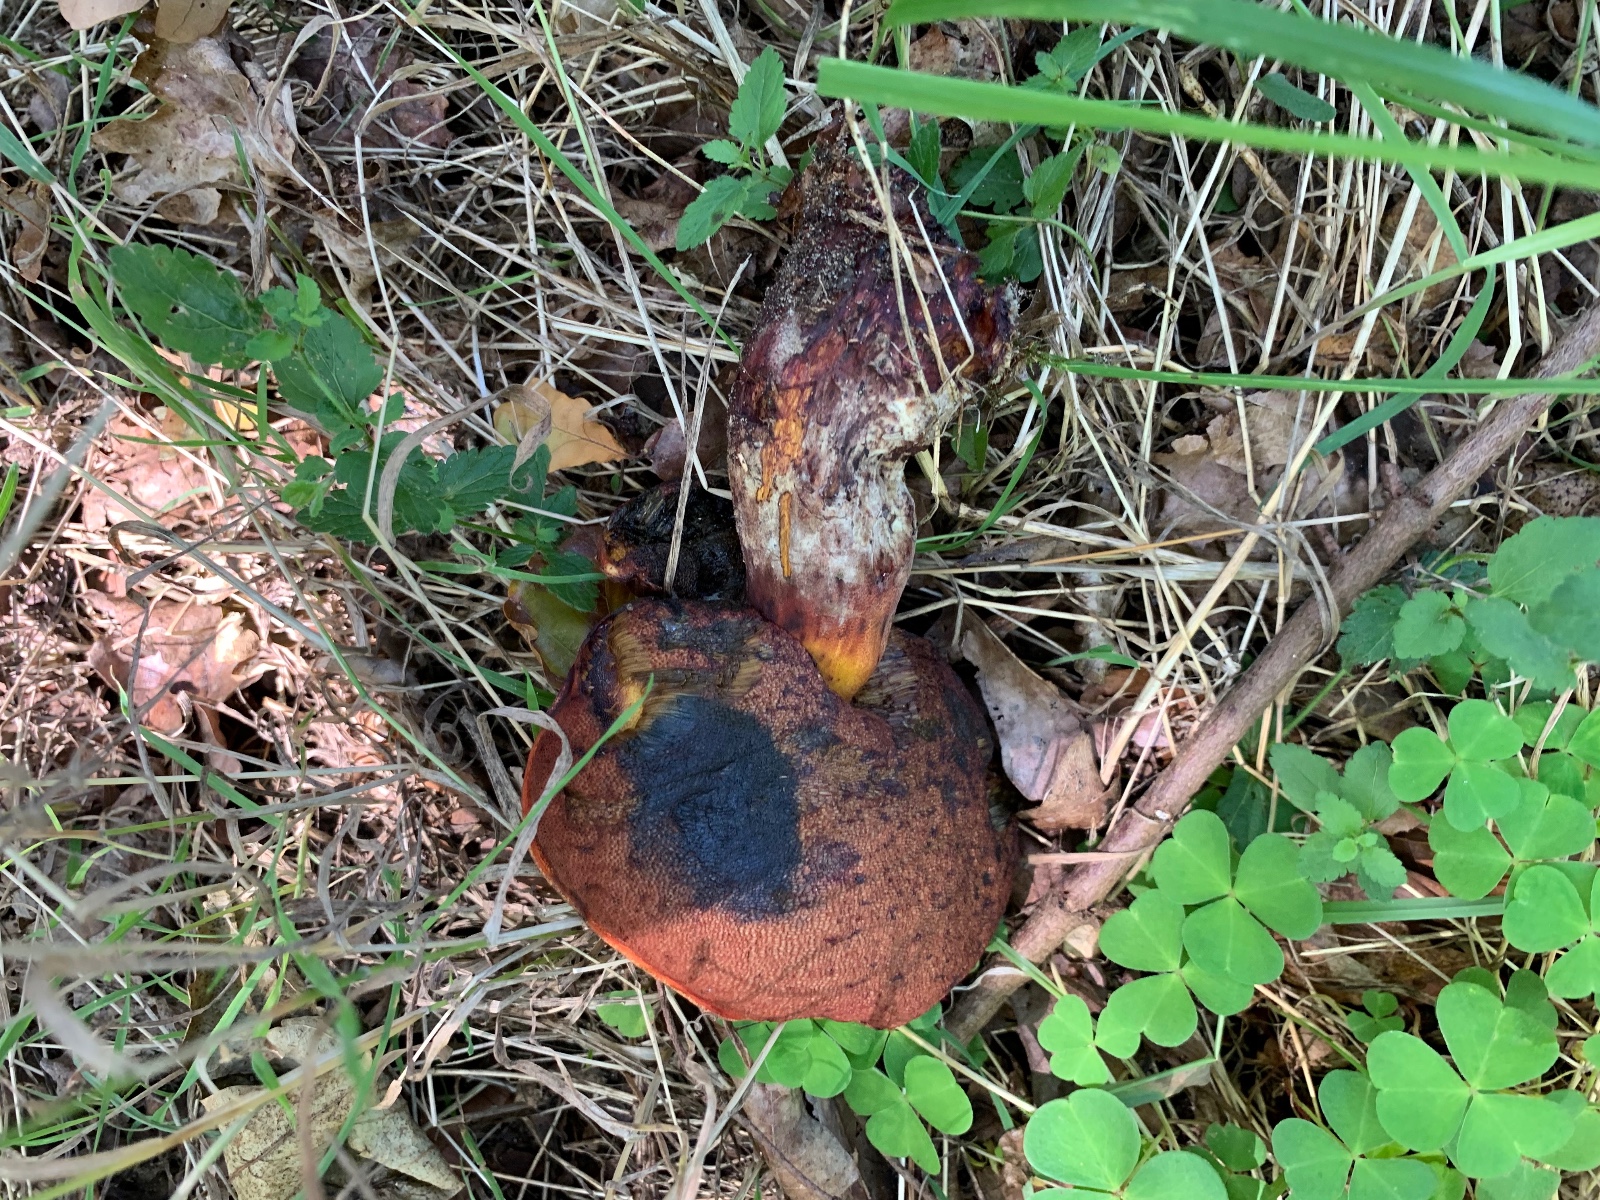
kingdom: Fungi
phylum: Basidiomycota
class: Agaricomycetes
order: Boletales
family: Boletaceae
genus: Neoboletus
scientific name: Neoboletus erythropus
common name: punktstokket indigorørhat
